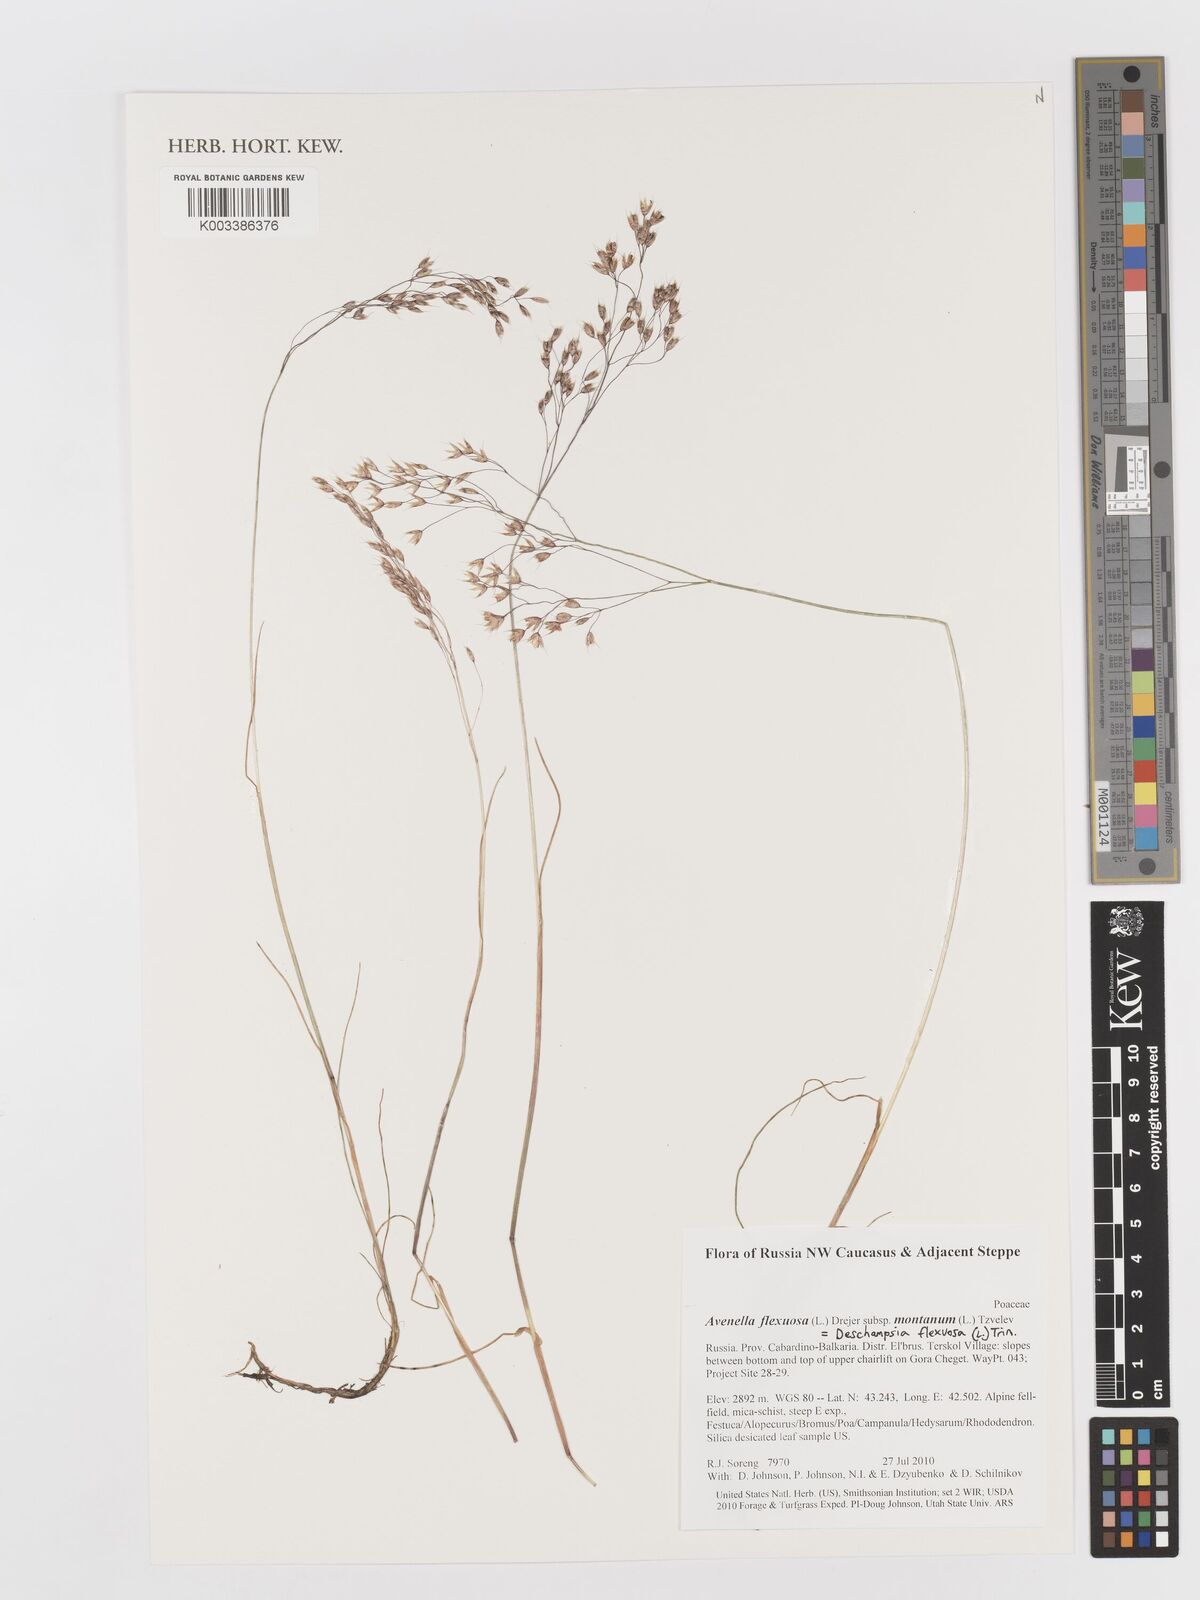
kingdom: Plantae
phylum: Tracheophyta
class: Liliopsida
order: Poales
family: Poaceae
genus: Avenella
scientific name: Avenella flexuosa
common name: Wavy hairgrass
